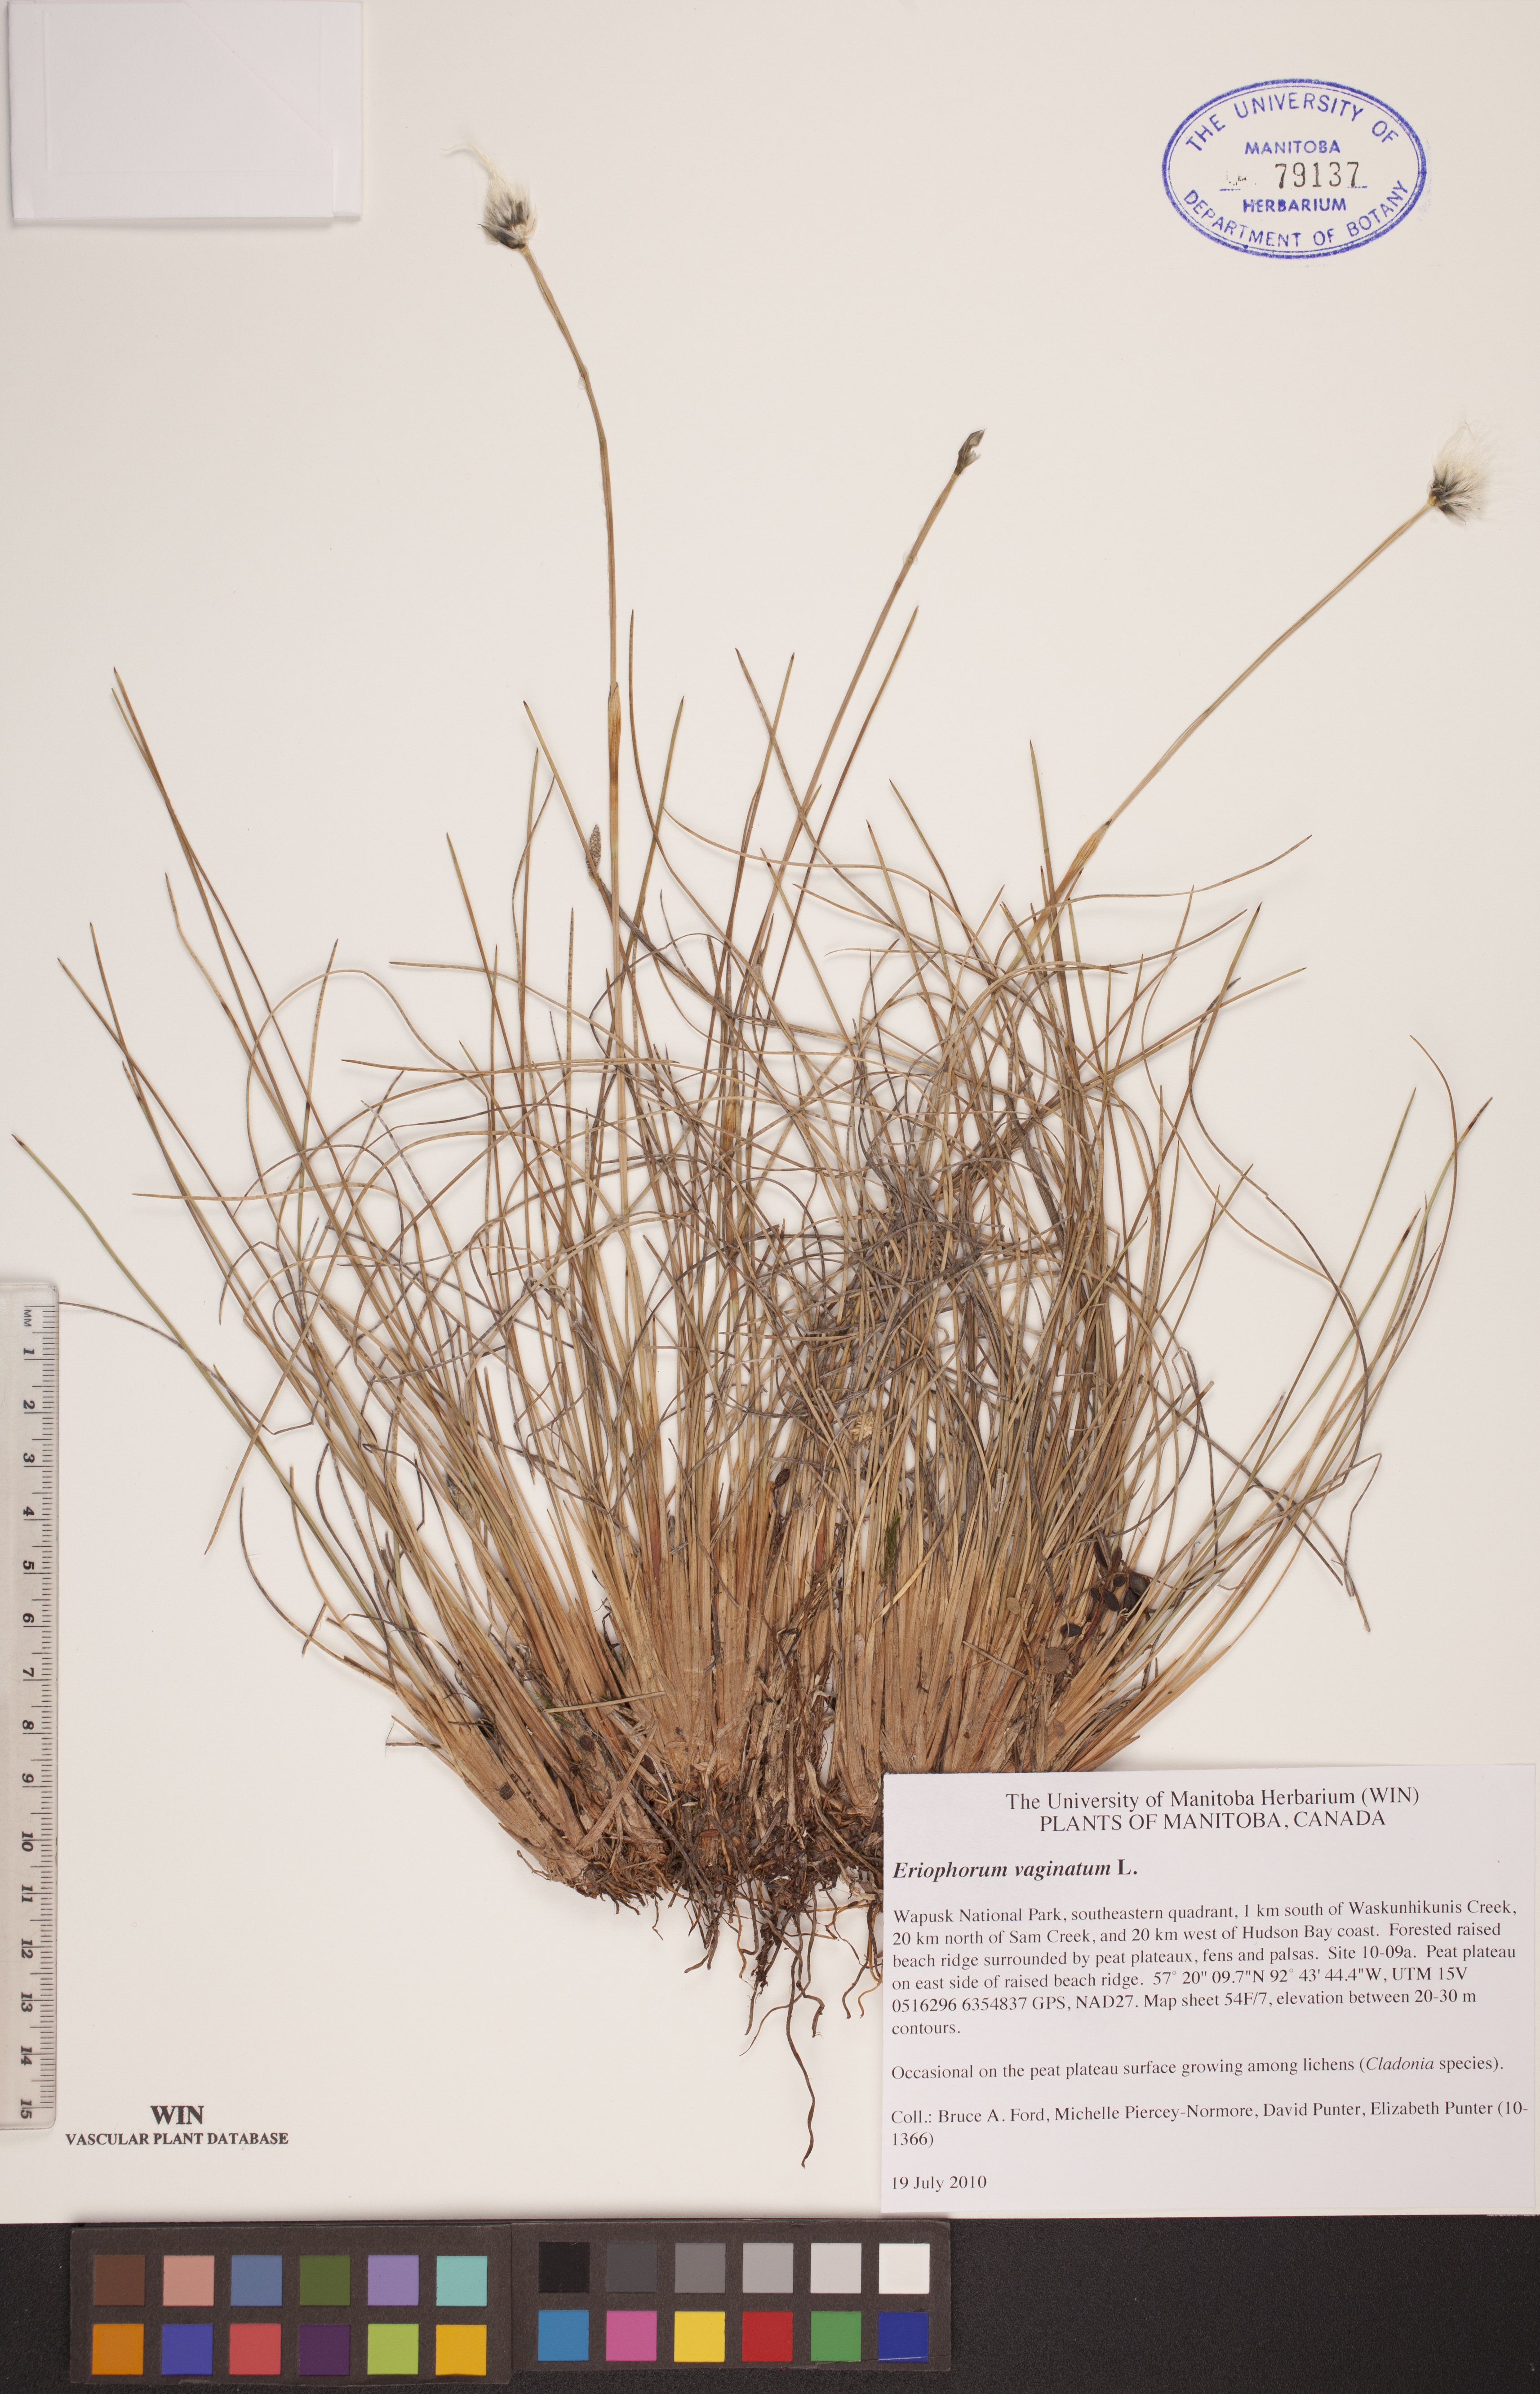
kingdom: Plantae
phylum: Tracheophyta
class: Liliopsida
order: Poales
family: Cyperaceae
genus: Eriophorum
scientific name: Eriophorum vaginatum
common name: Hare's-tail cottongrass
